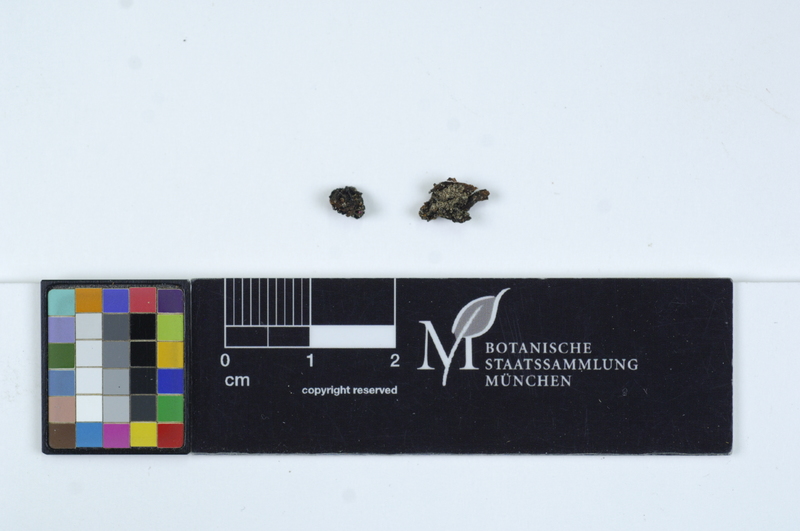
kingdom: Fungi
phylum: Basidiomycota
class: Tremellomycetes
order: Tremellales
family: Tremellaceae
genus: Tremella
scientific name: Tremella moriformis
